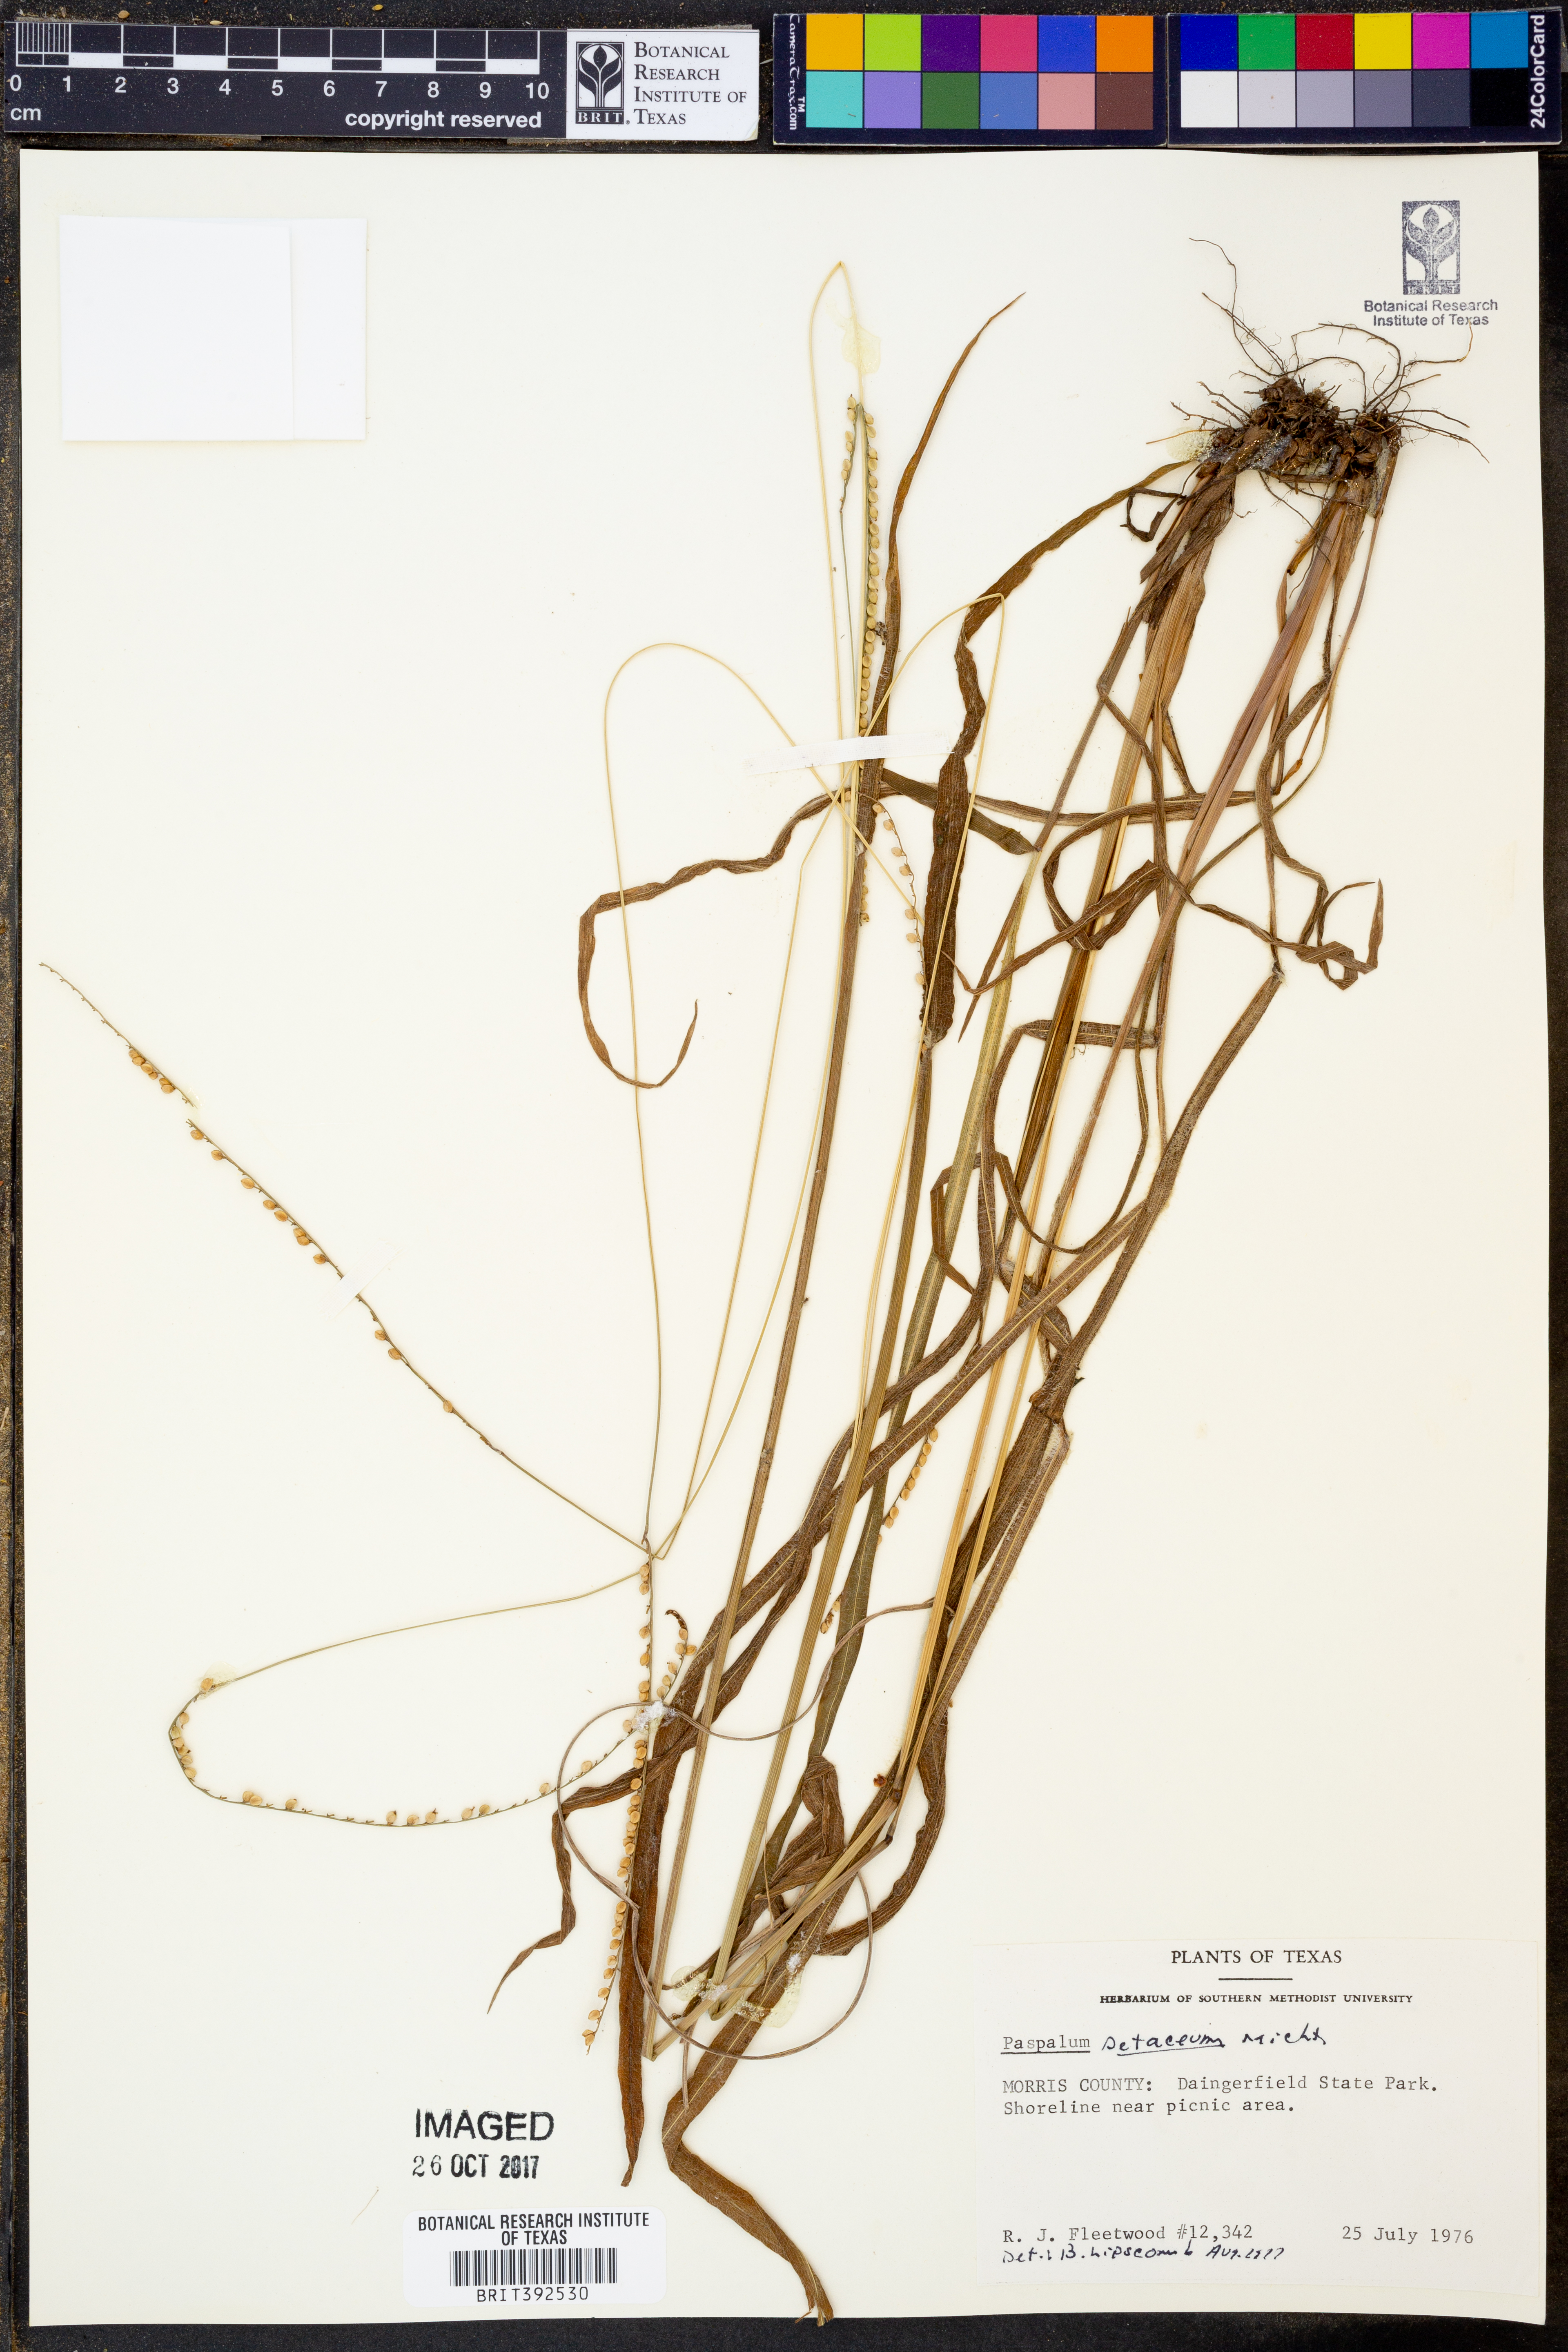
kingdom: Plantae
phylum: Tracheophyta
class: Liliopsida
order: Poales
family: Poaceae
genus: Paspalum
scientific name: Paspalum setaceum
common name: Slender paspalum
